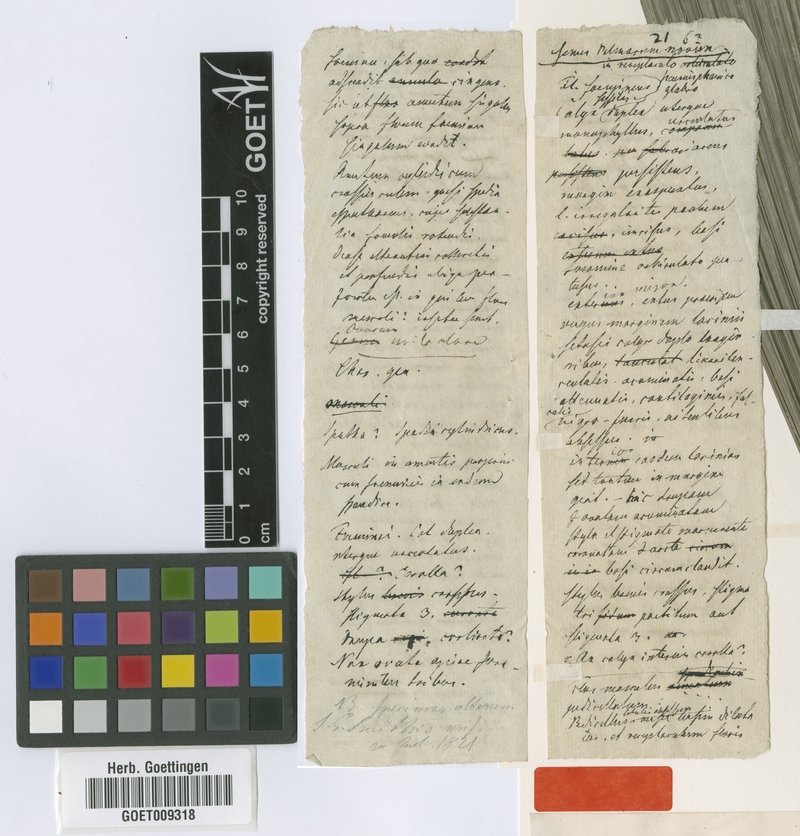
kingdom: Plantae
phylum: Tracheophyta
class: Liliopsida
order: Arecales
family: Arecaceae
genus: Astrocaryum
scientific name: Astrocaryum aculeatum
